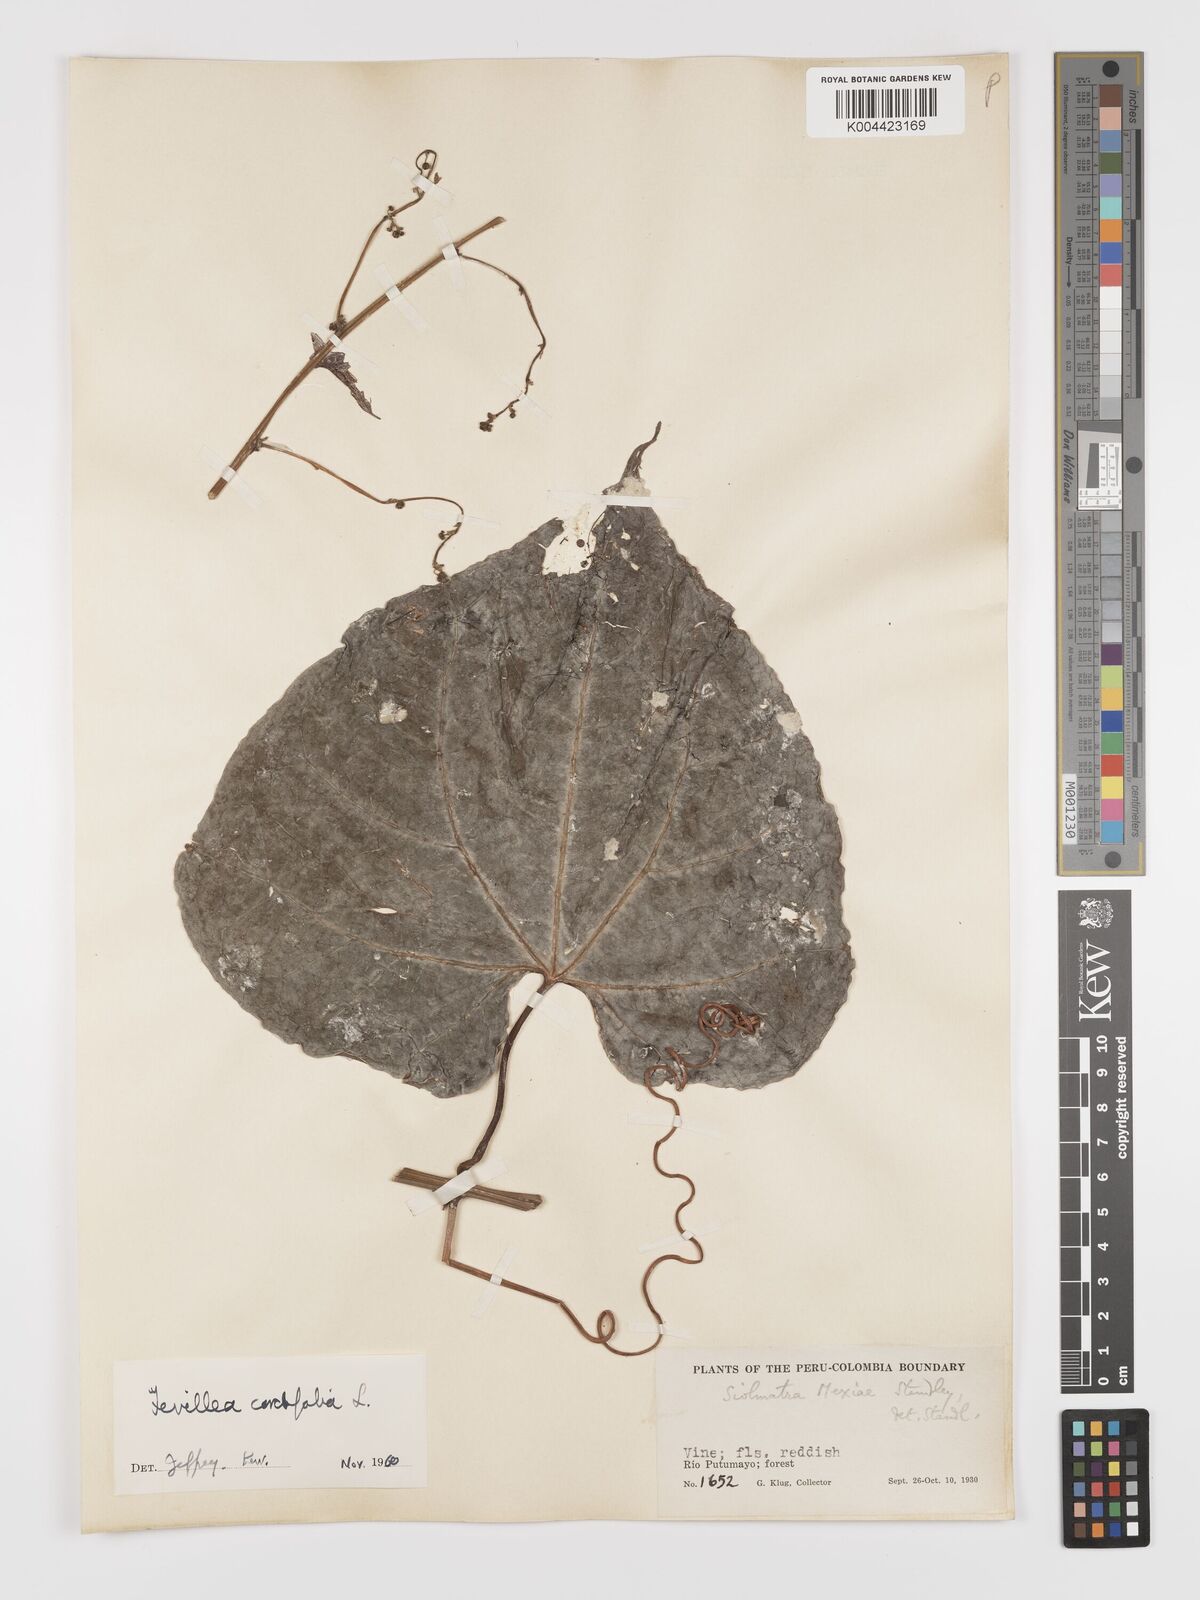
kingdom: Plantae
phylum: Tracheophyta
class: Magnoliopsida
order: Cucurbitales
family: Cucurbitaceae
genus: Fevillea
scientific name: Fevillea
